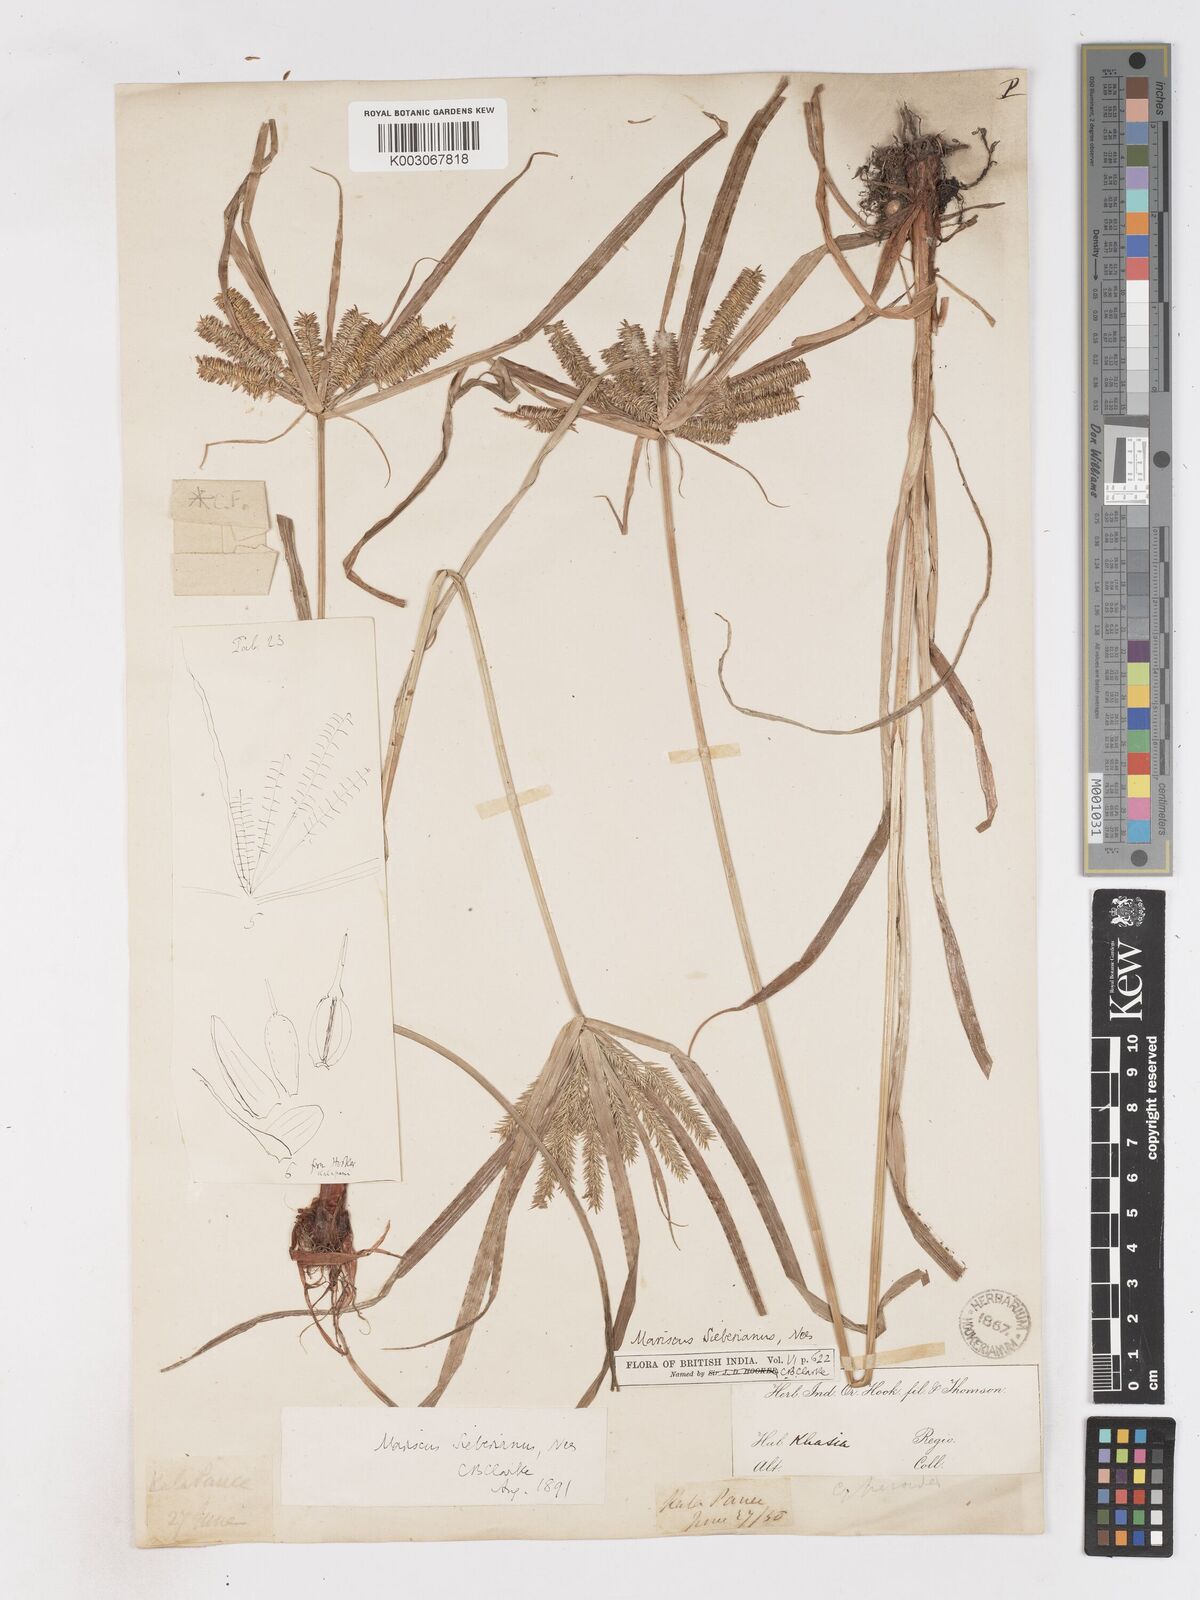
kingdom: Plantae
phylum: Tracheophyta
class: Liliopsida
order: Poales
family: Cyperaceae
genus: Cyperus
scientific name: Cyperus cyperoides
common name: Pacific island flat sedge
